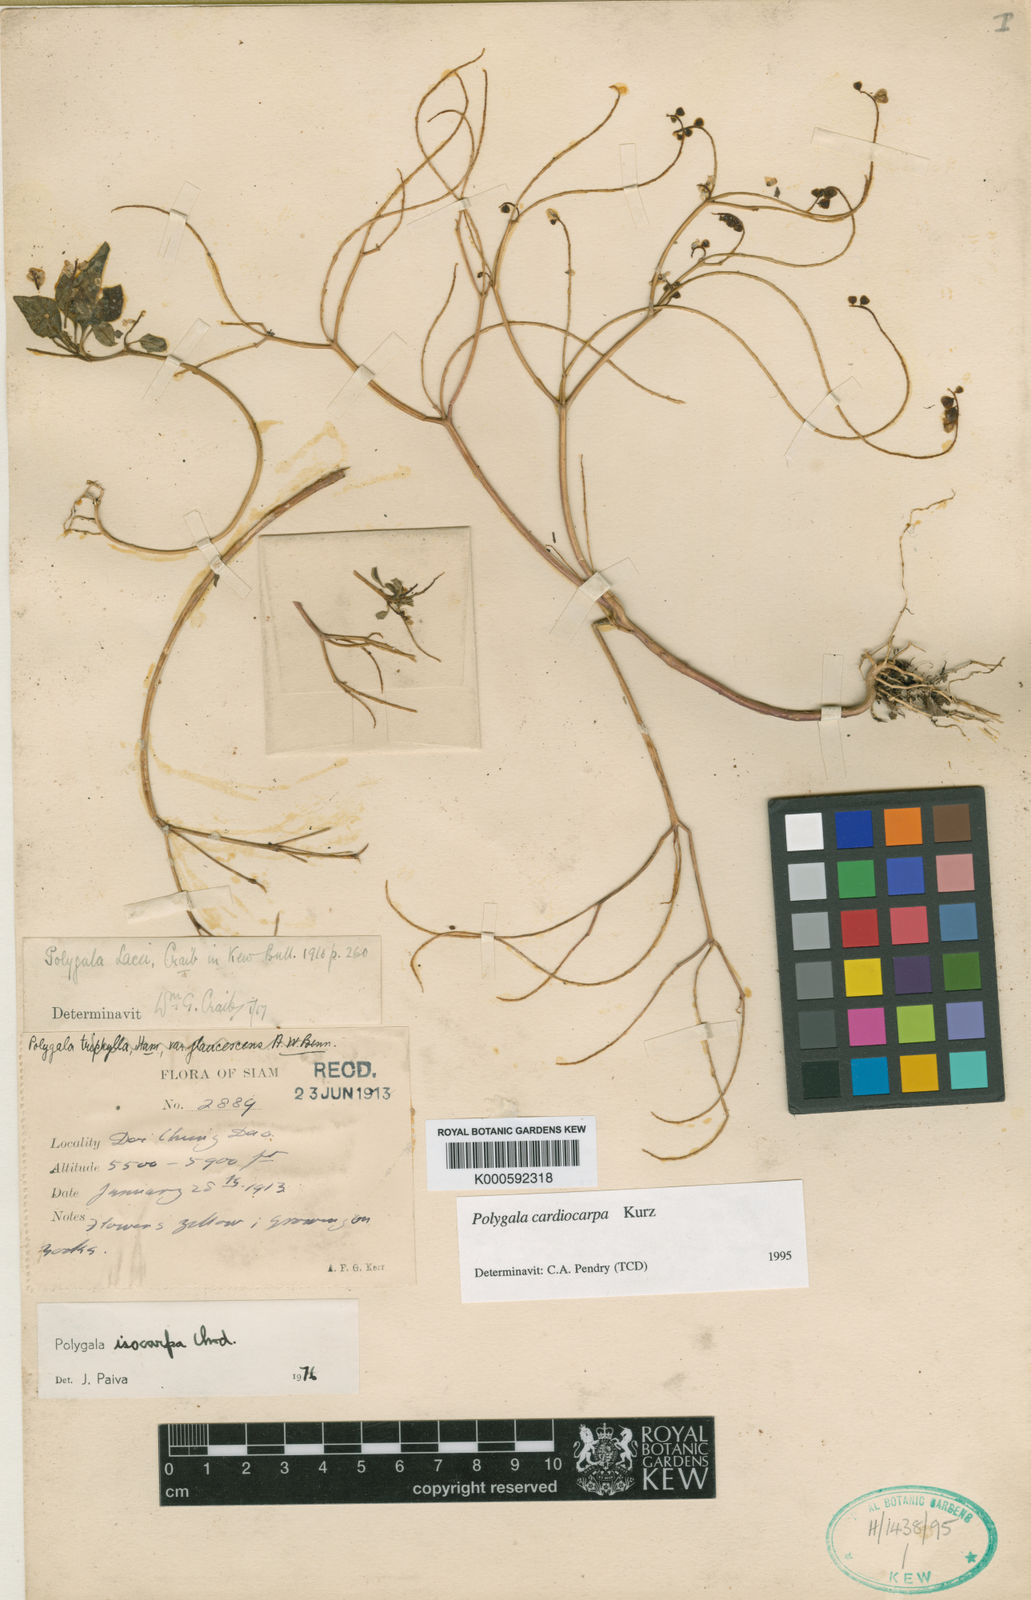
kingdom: Plantae
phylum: Tracheophyta
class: Magnoliopsida
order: Fabales
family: Polygalaceae
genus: Polygala
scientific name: Polygala cardiocarpa
